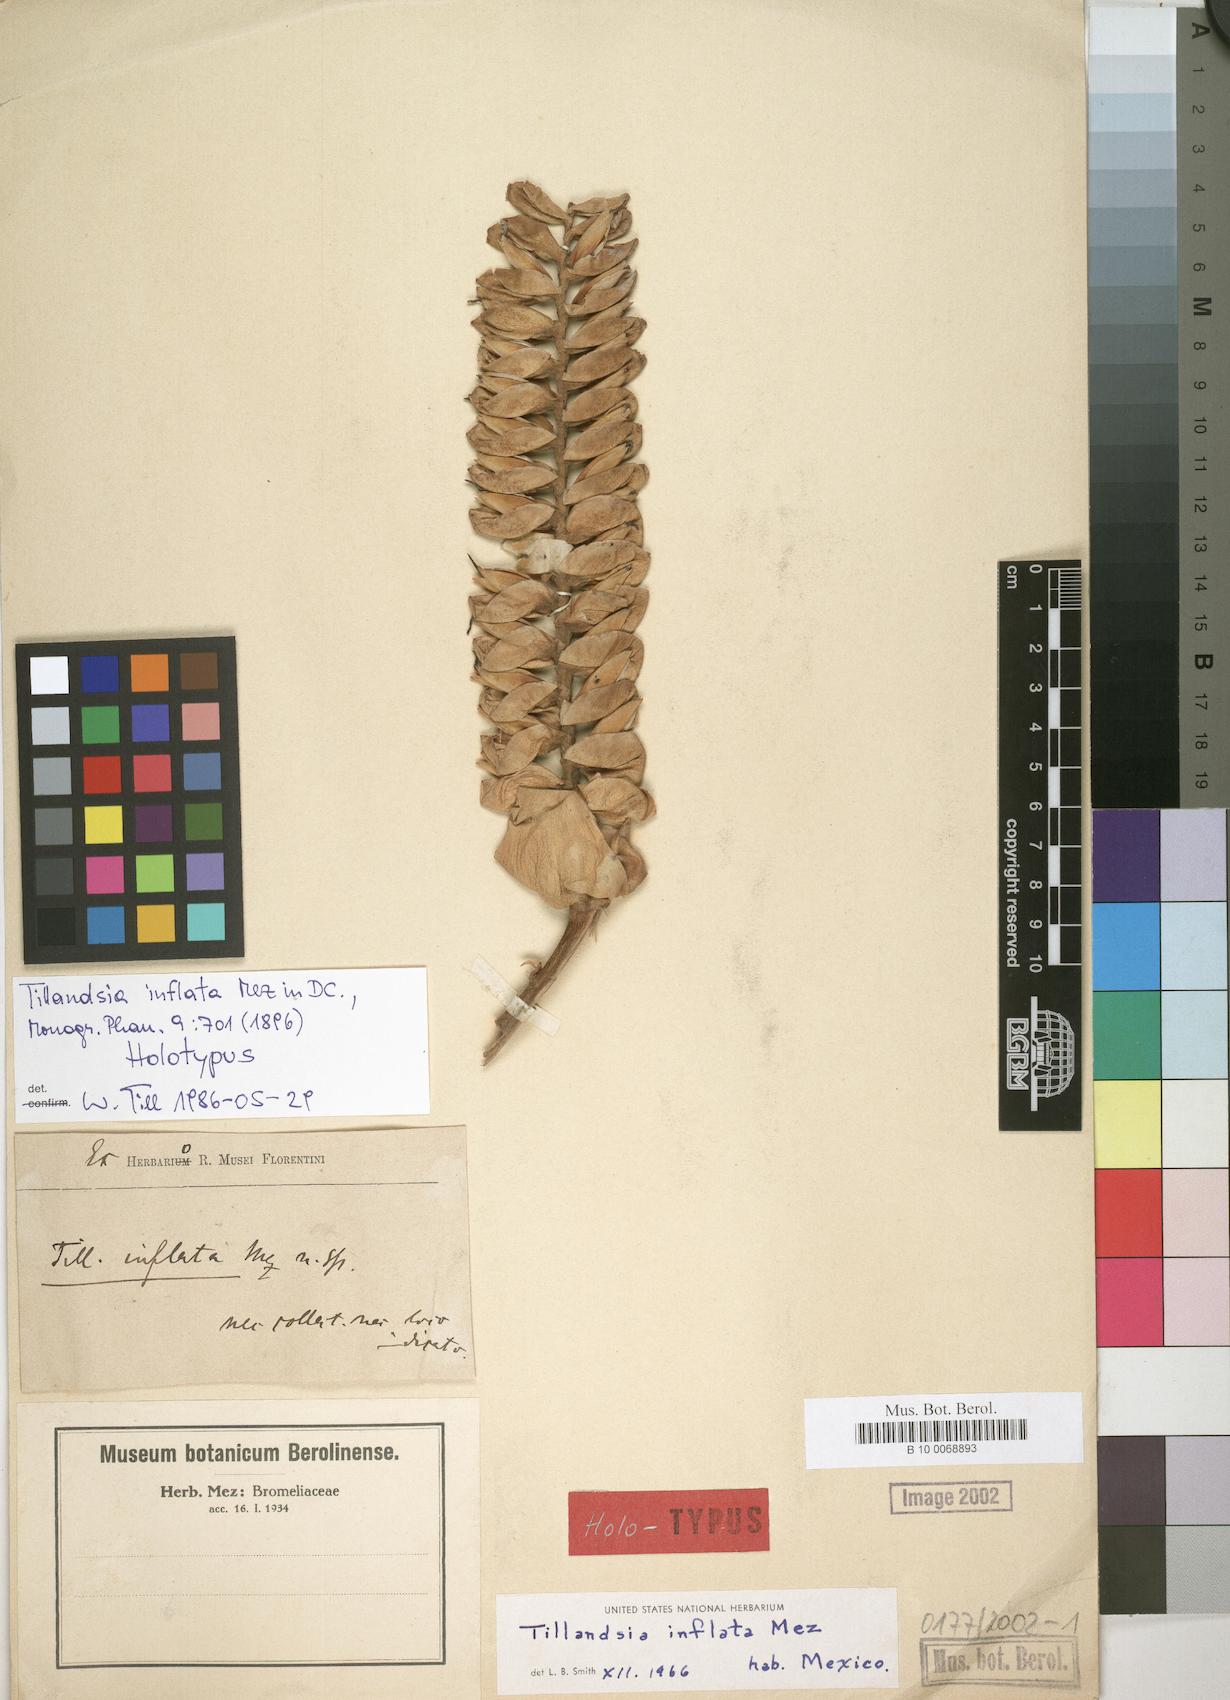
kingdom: Plantae
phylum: Tracheophyta
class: Liliopsida
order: Poales
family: Bromeliaceae
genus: Tillandsia
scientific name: Tillandsia mooreana
